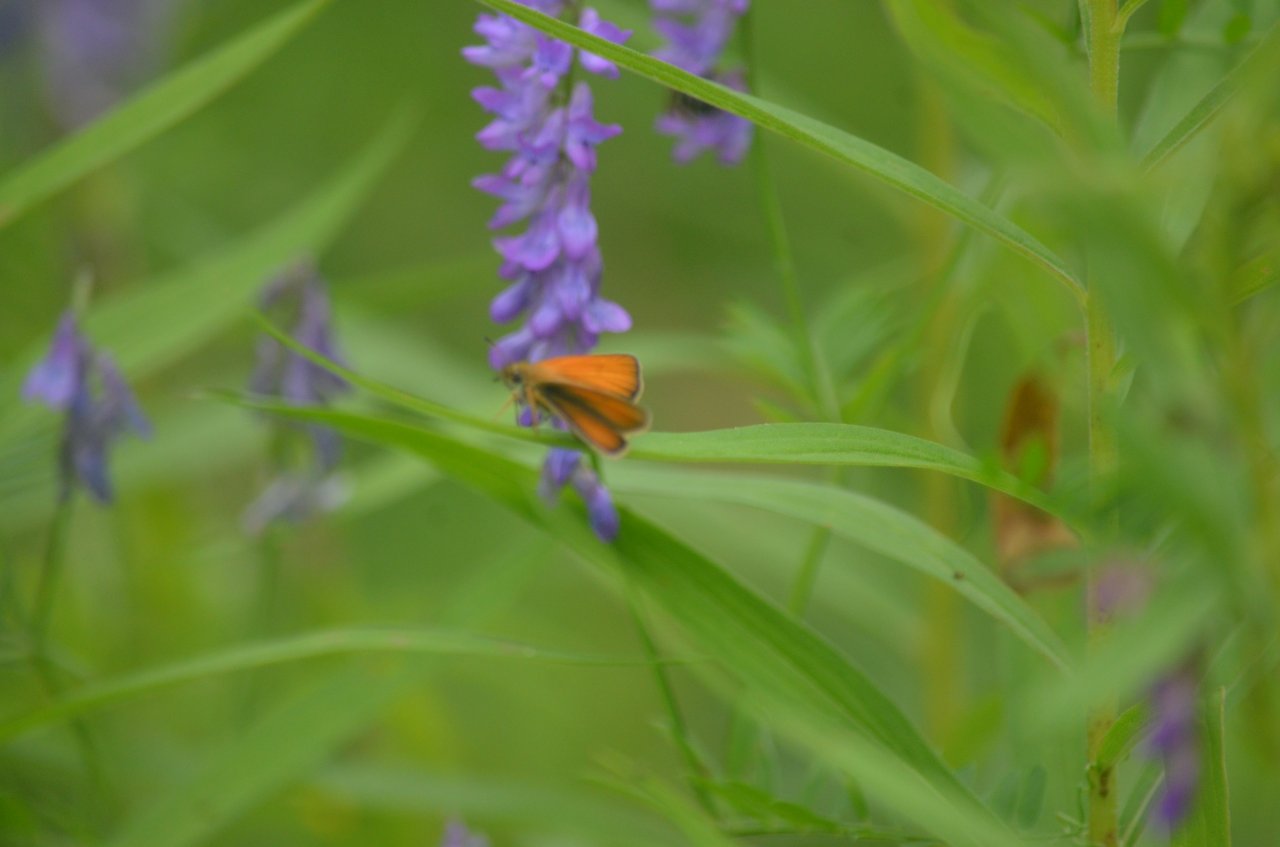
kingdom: Animalia
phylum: Arthropoda
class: Insecta
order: Lepidoptera
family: Hesperiidae
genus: Ancyloxypha
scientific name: Ancyloxypha numitor
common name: Least Skipper
